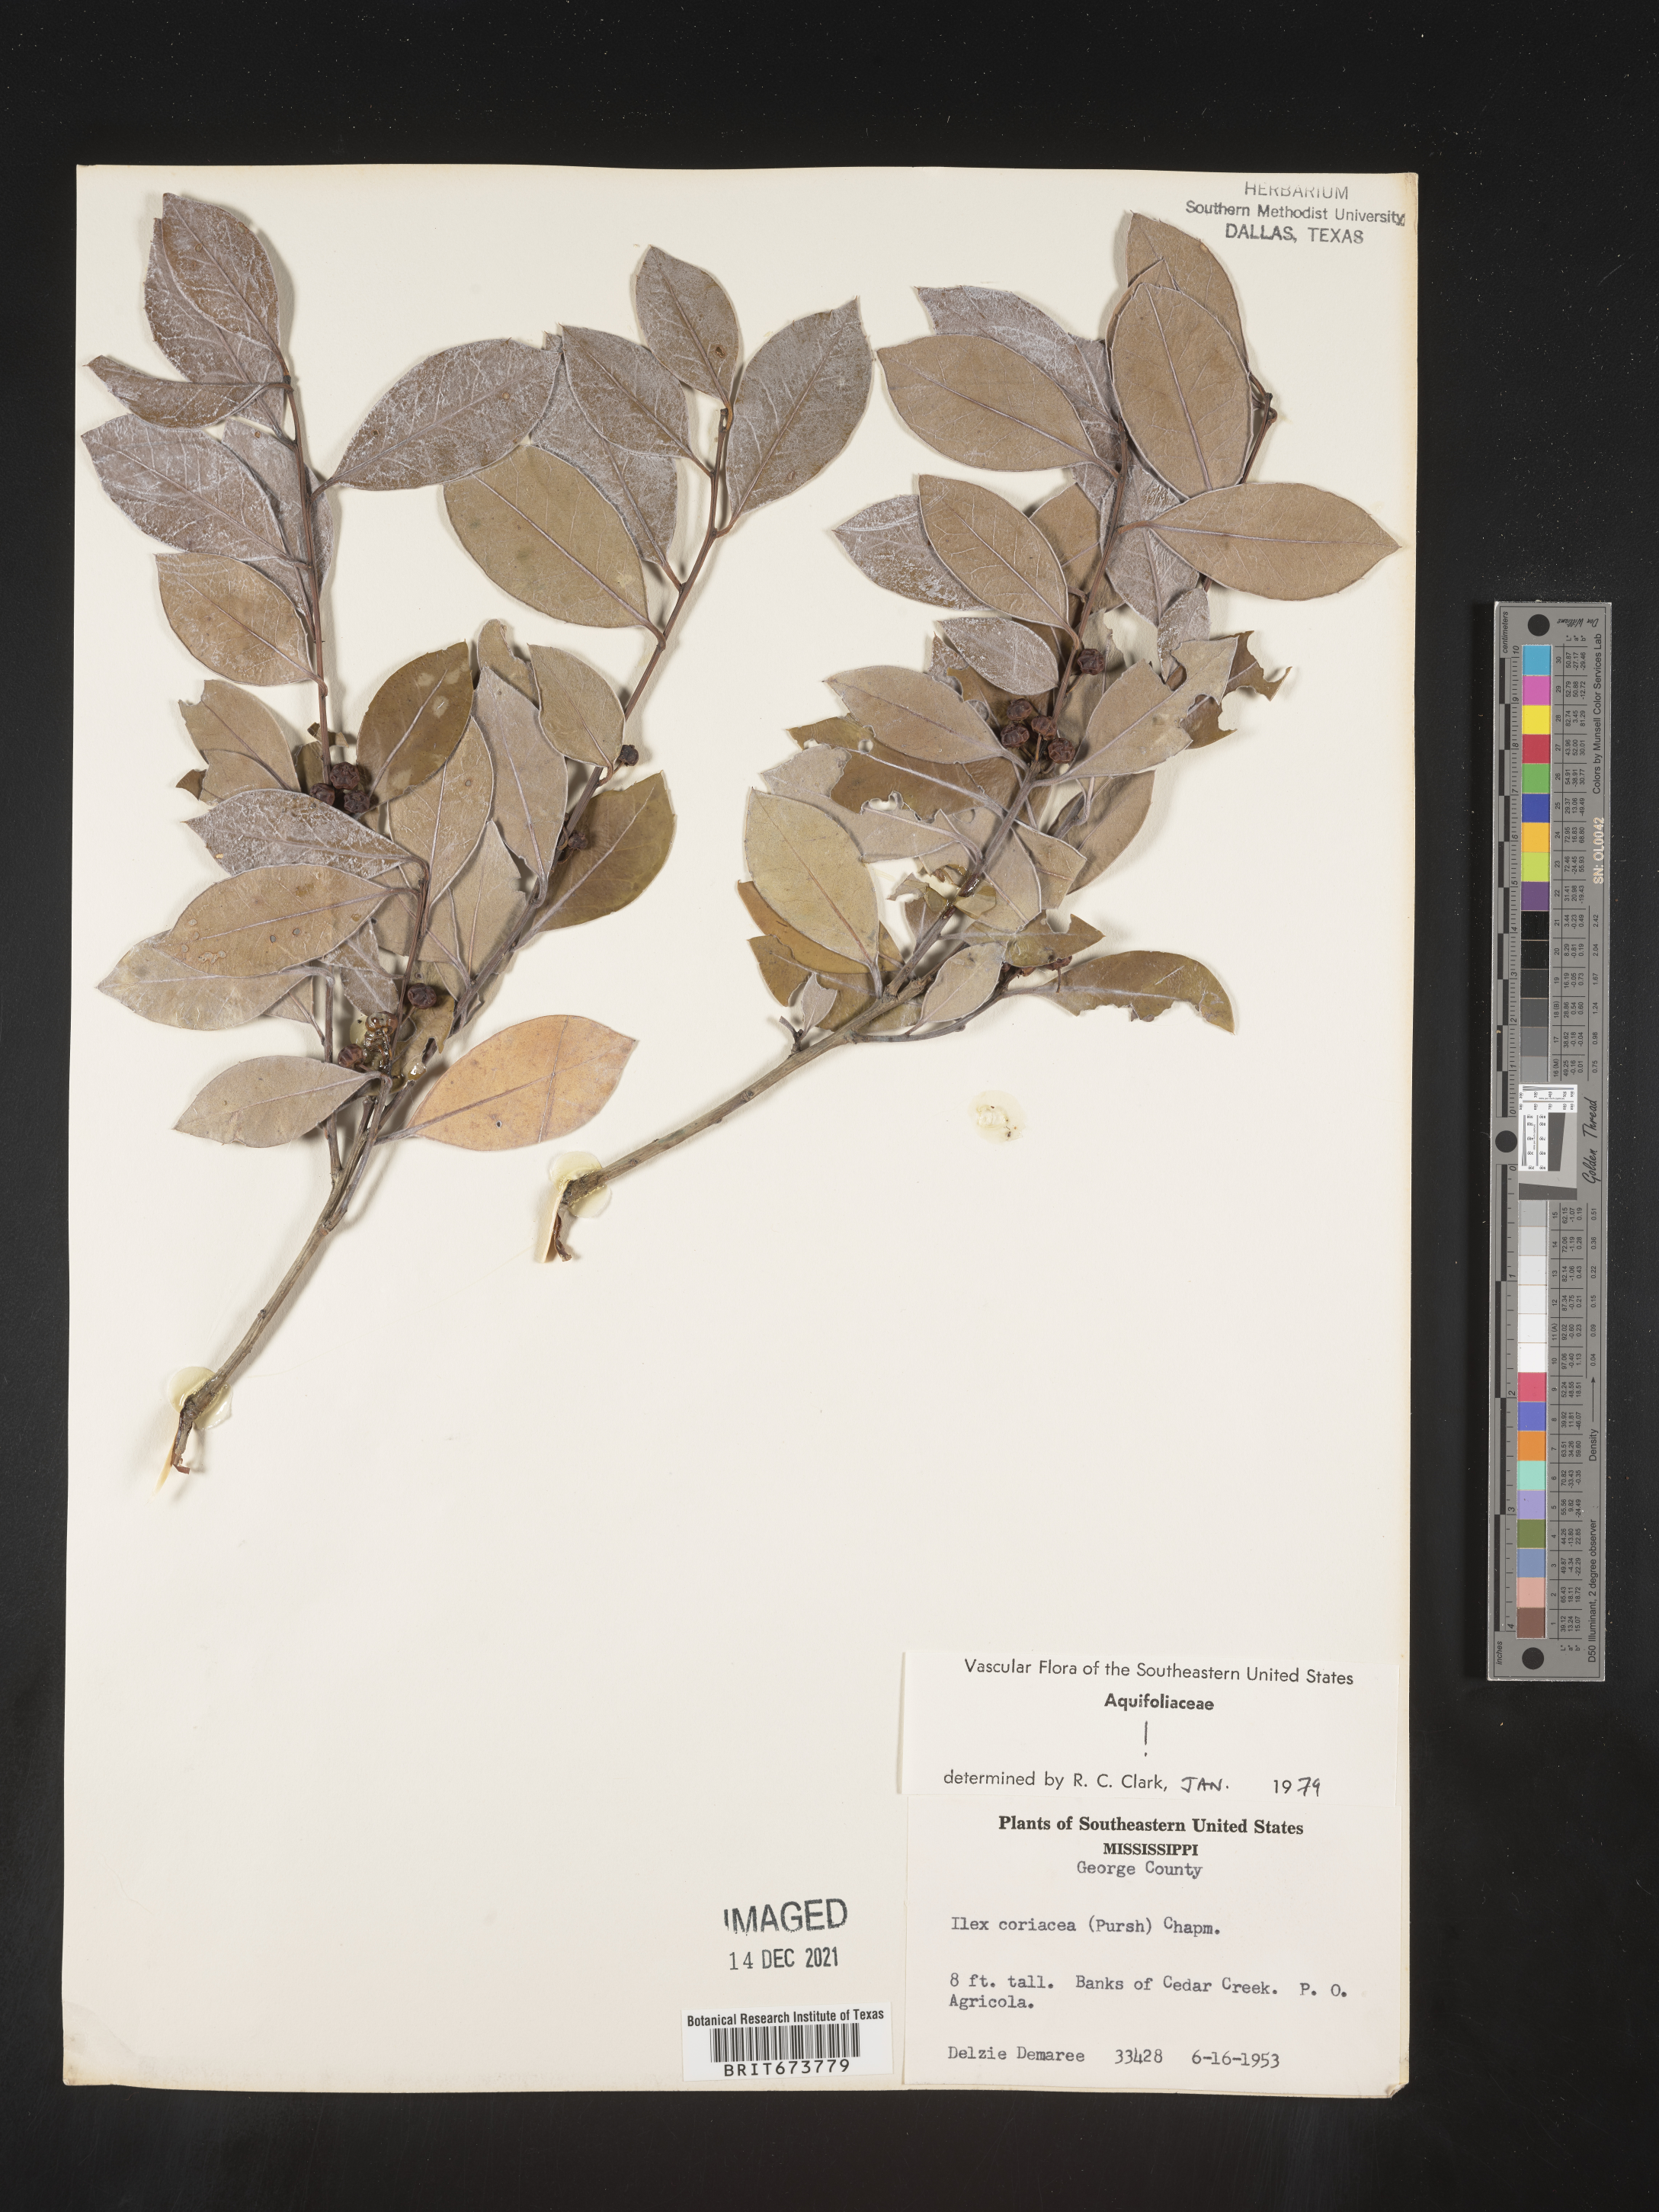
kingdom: Plantae
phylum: Tracheophyta
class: Magnoliopsida
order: Aquifoliales
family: Aquifoliaceae
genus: Ilex
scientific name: Ilex coriacea
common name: Sweet gallberry
